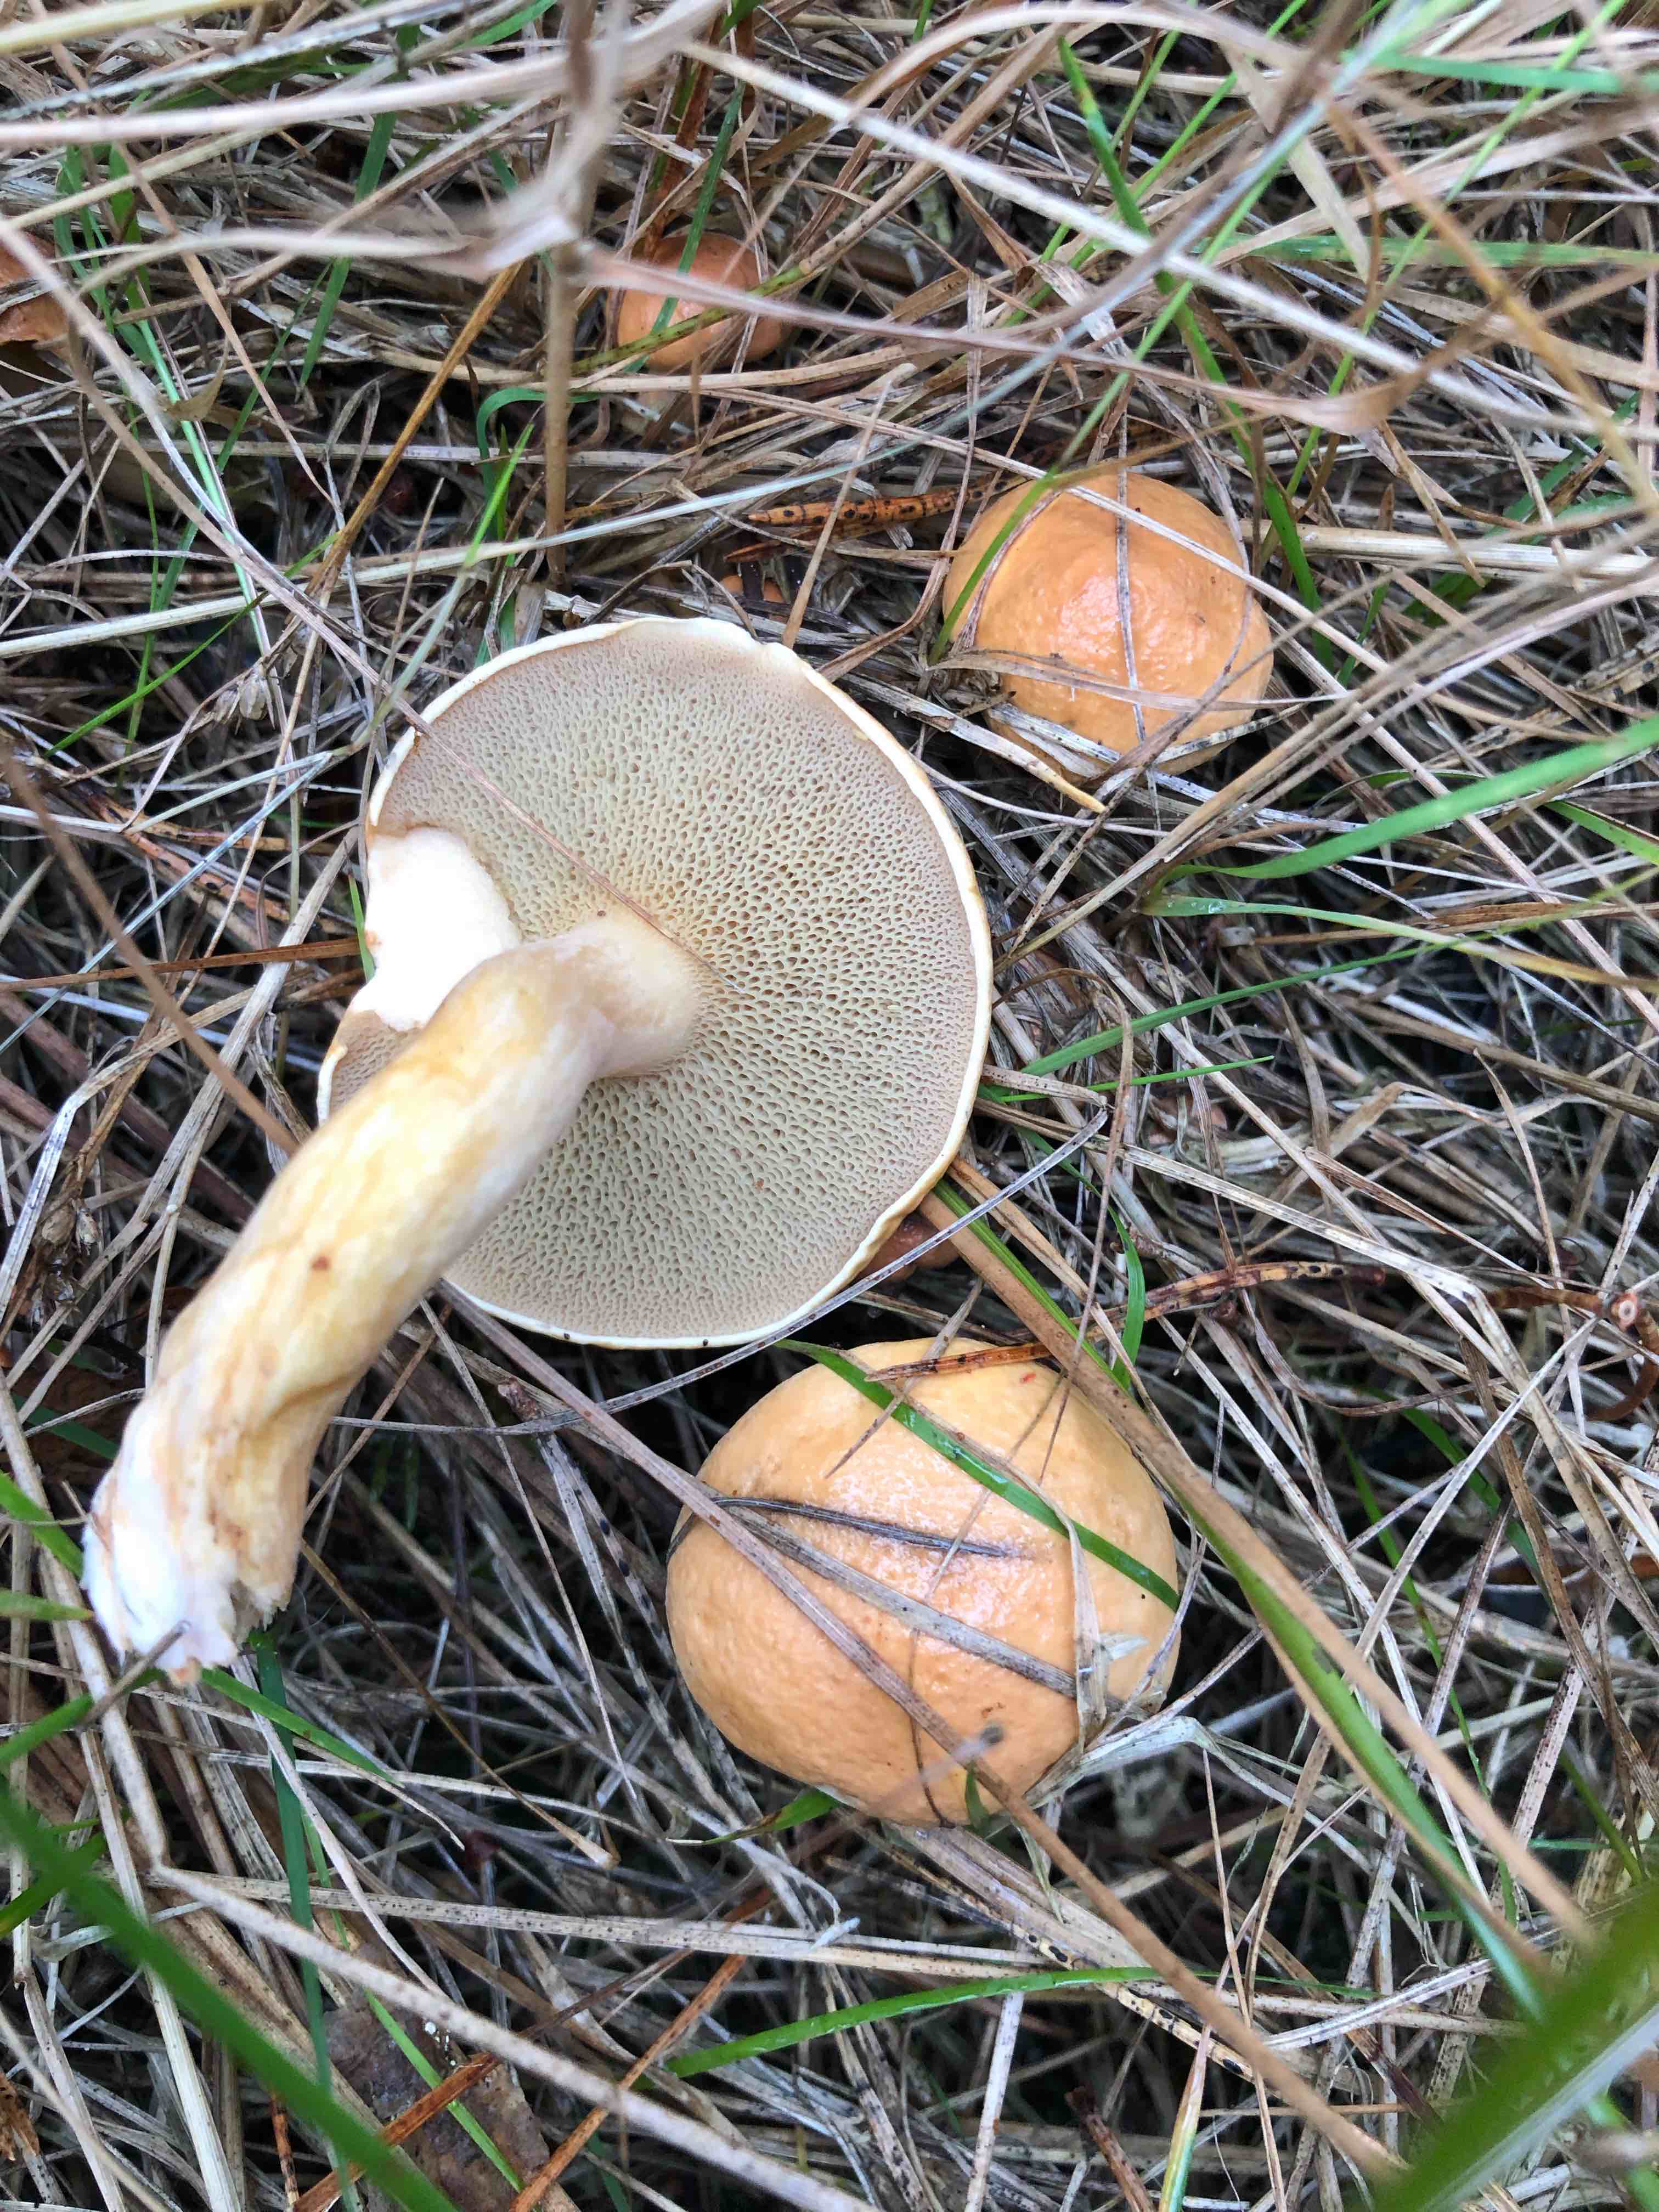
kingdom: Fungi
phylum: Basidiomycota
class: Agaricomycetes
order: Boletales
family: Suillaceae
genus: Suillus
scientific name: Suillus bovinus
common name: grovporet slimrørhat
